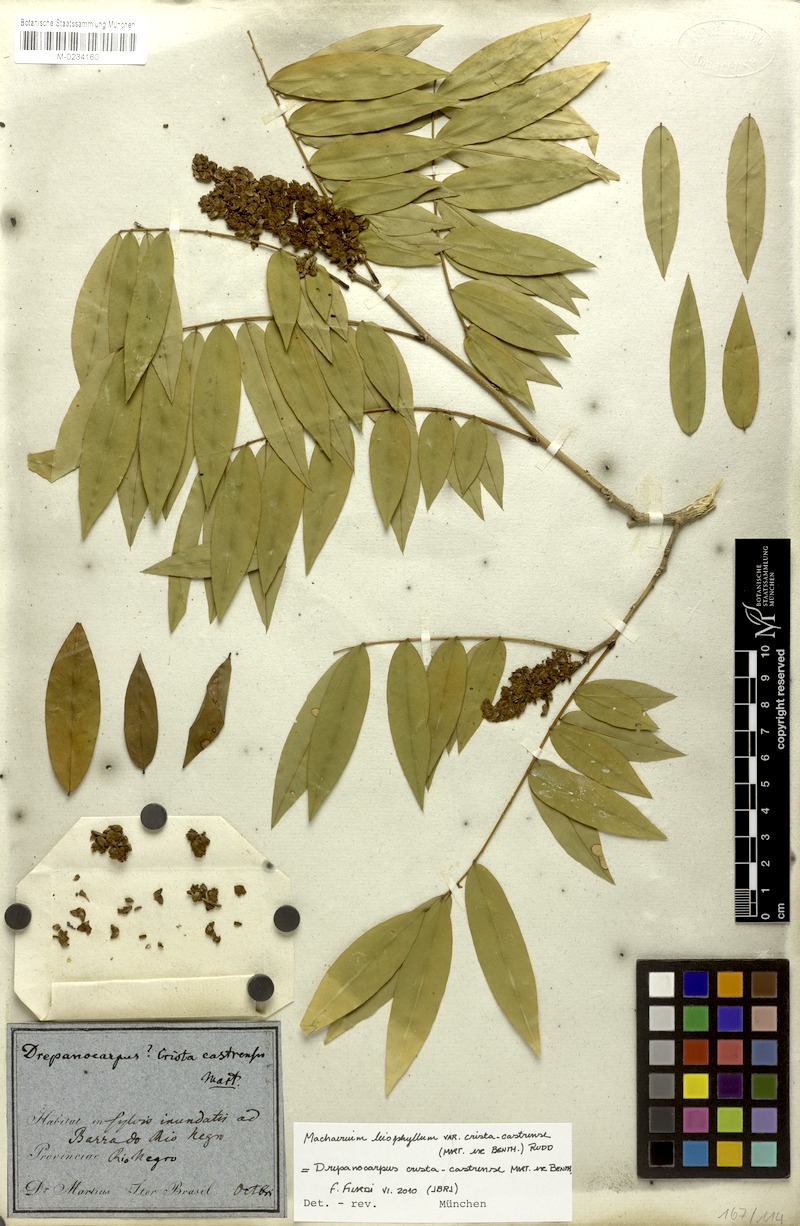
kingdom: Plantae
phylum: Tracheophyta
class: Magnoliopsida
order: Fabales
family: Fabaceae
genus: Machaerium
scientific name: Machaerium leiophyllum
